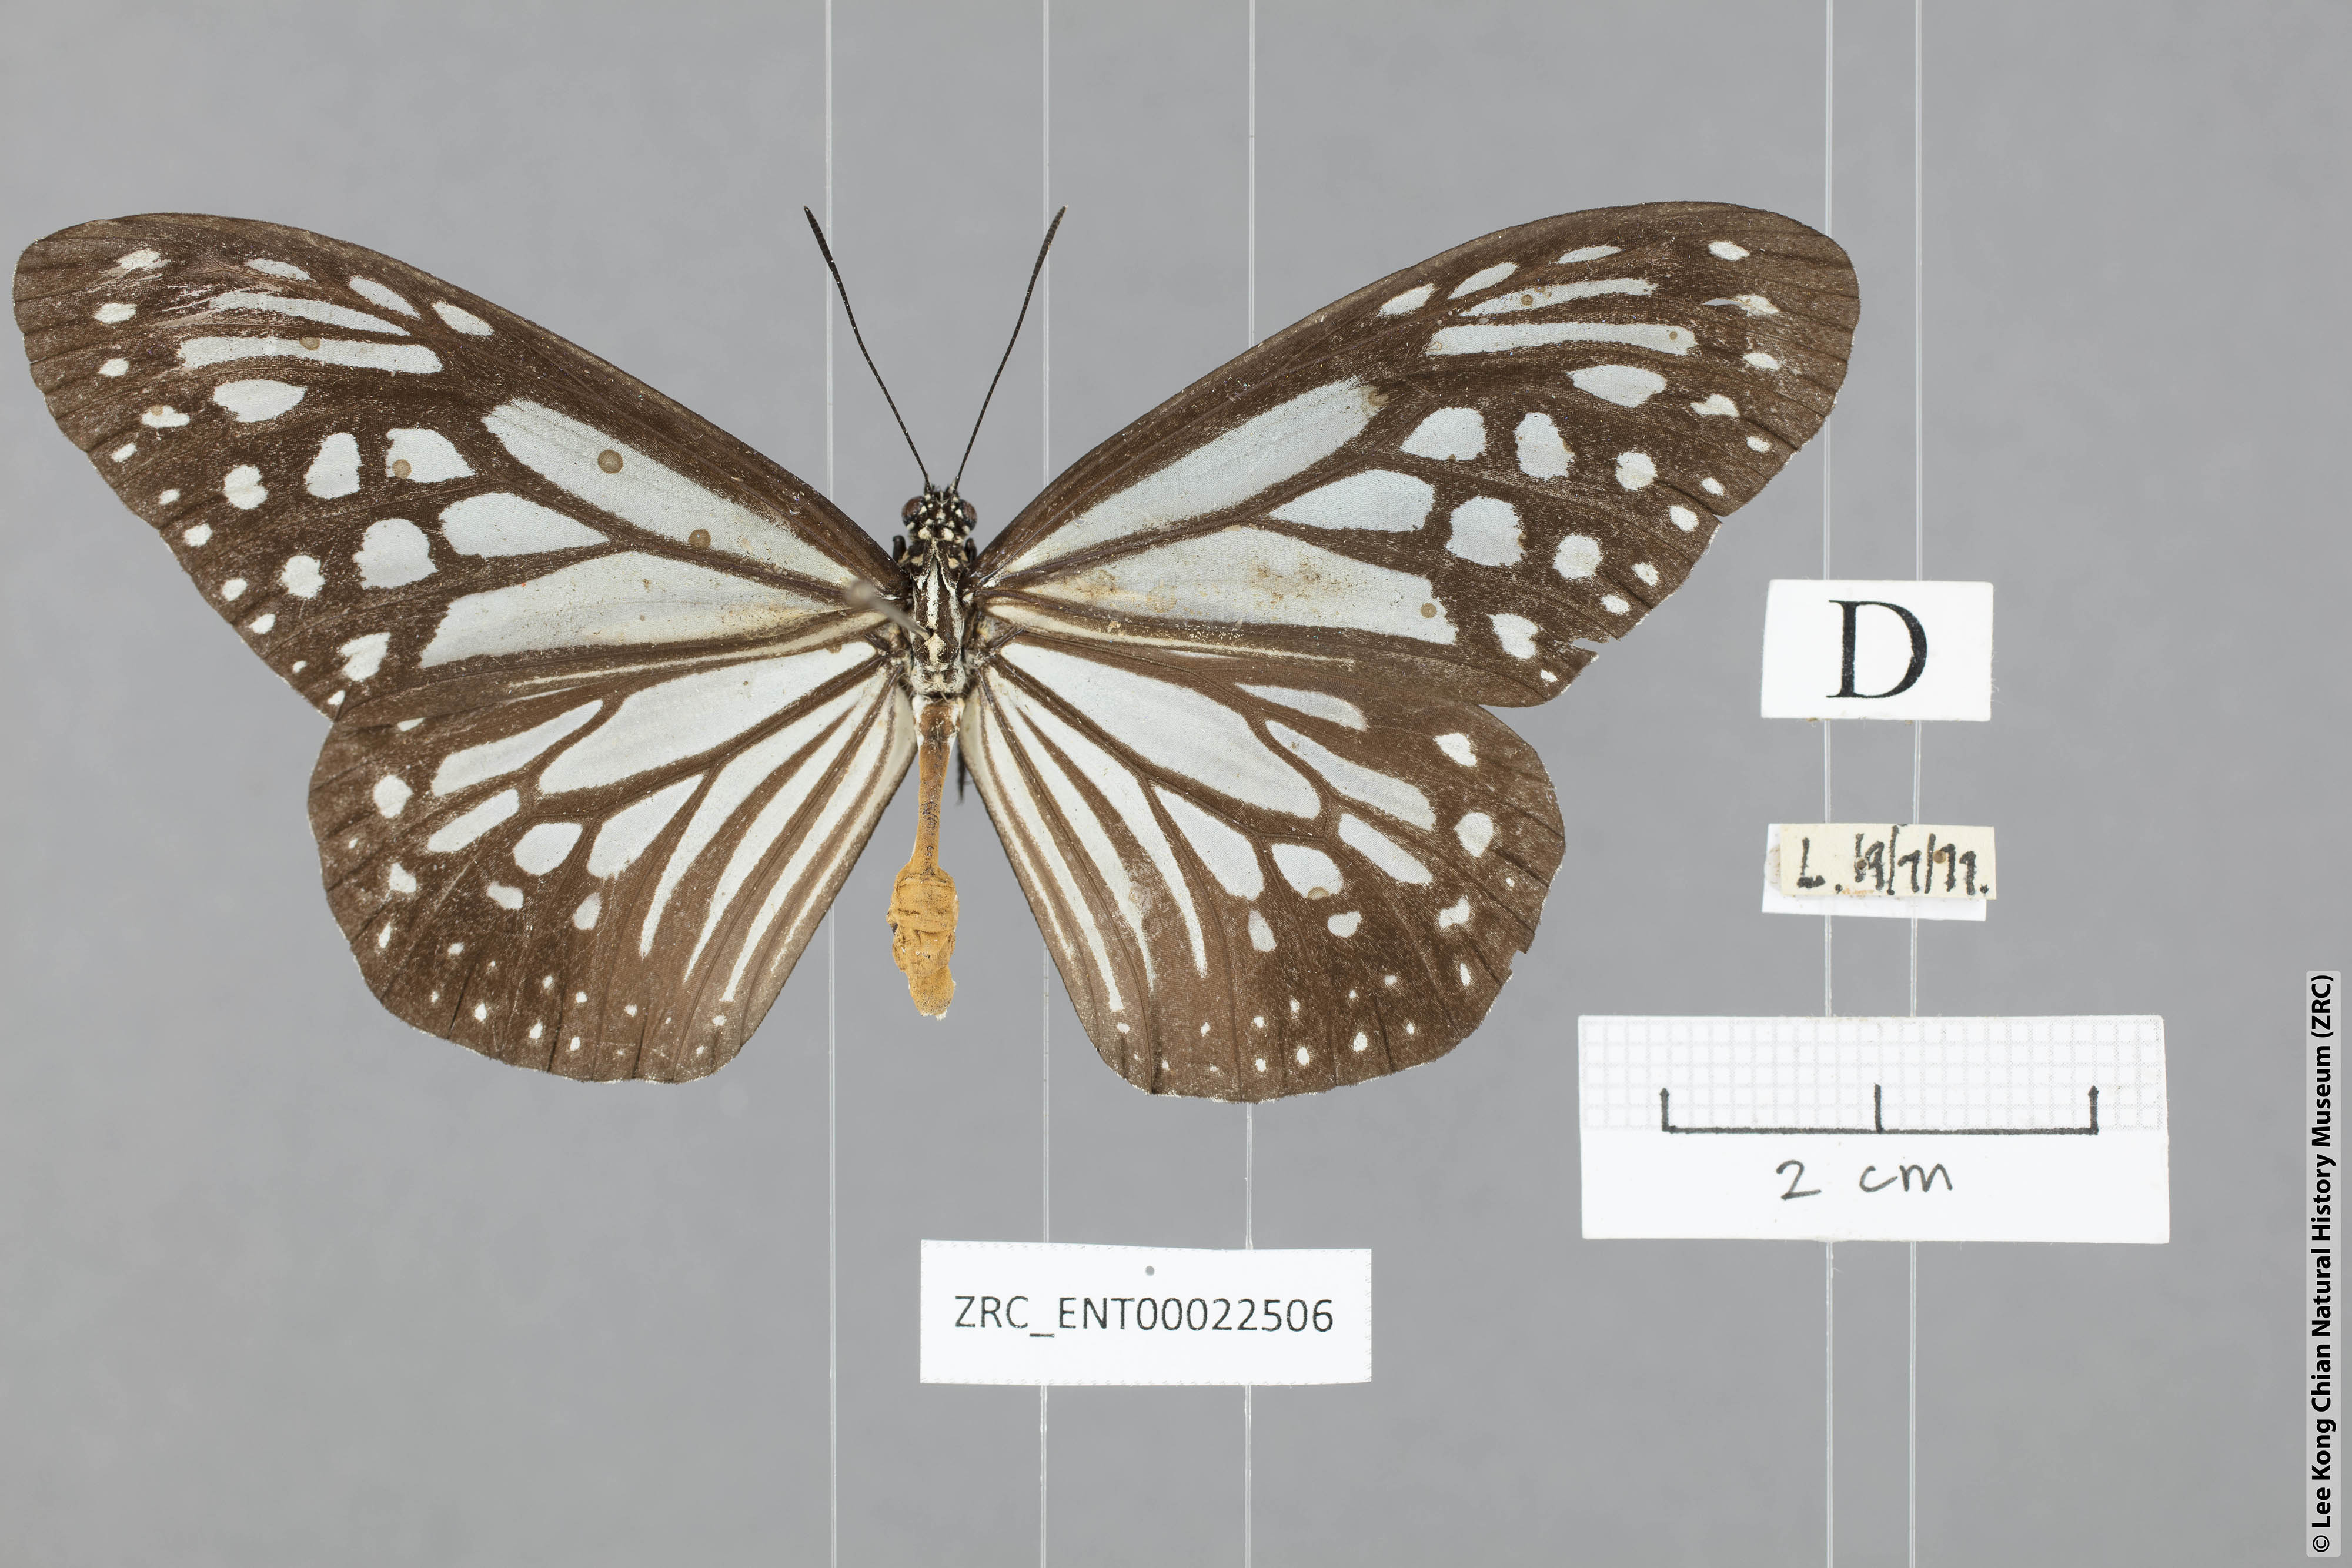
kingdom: Animalia
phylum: Arthropoda
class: Insecta
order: Lepidoptera
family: Nymphalidae
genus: Parantica
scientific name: Parantica melaneus
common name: Chocolate tiger
